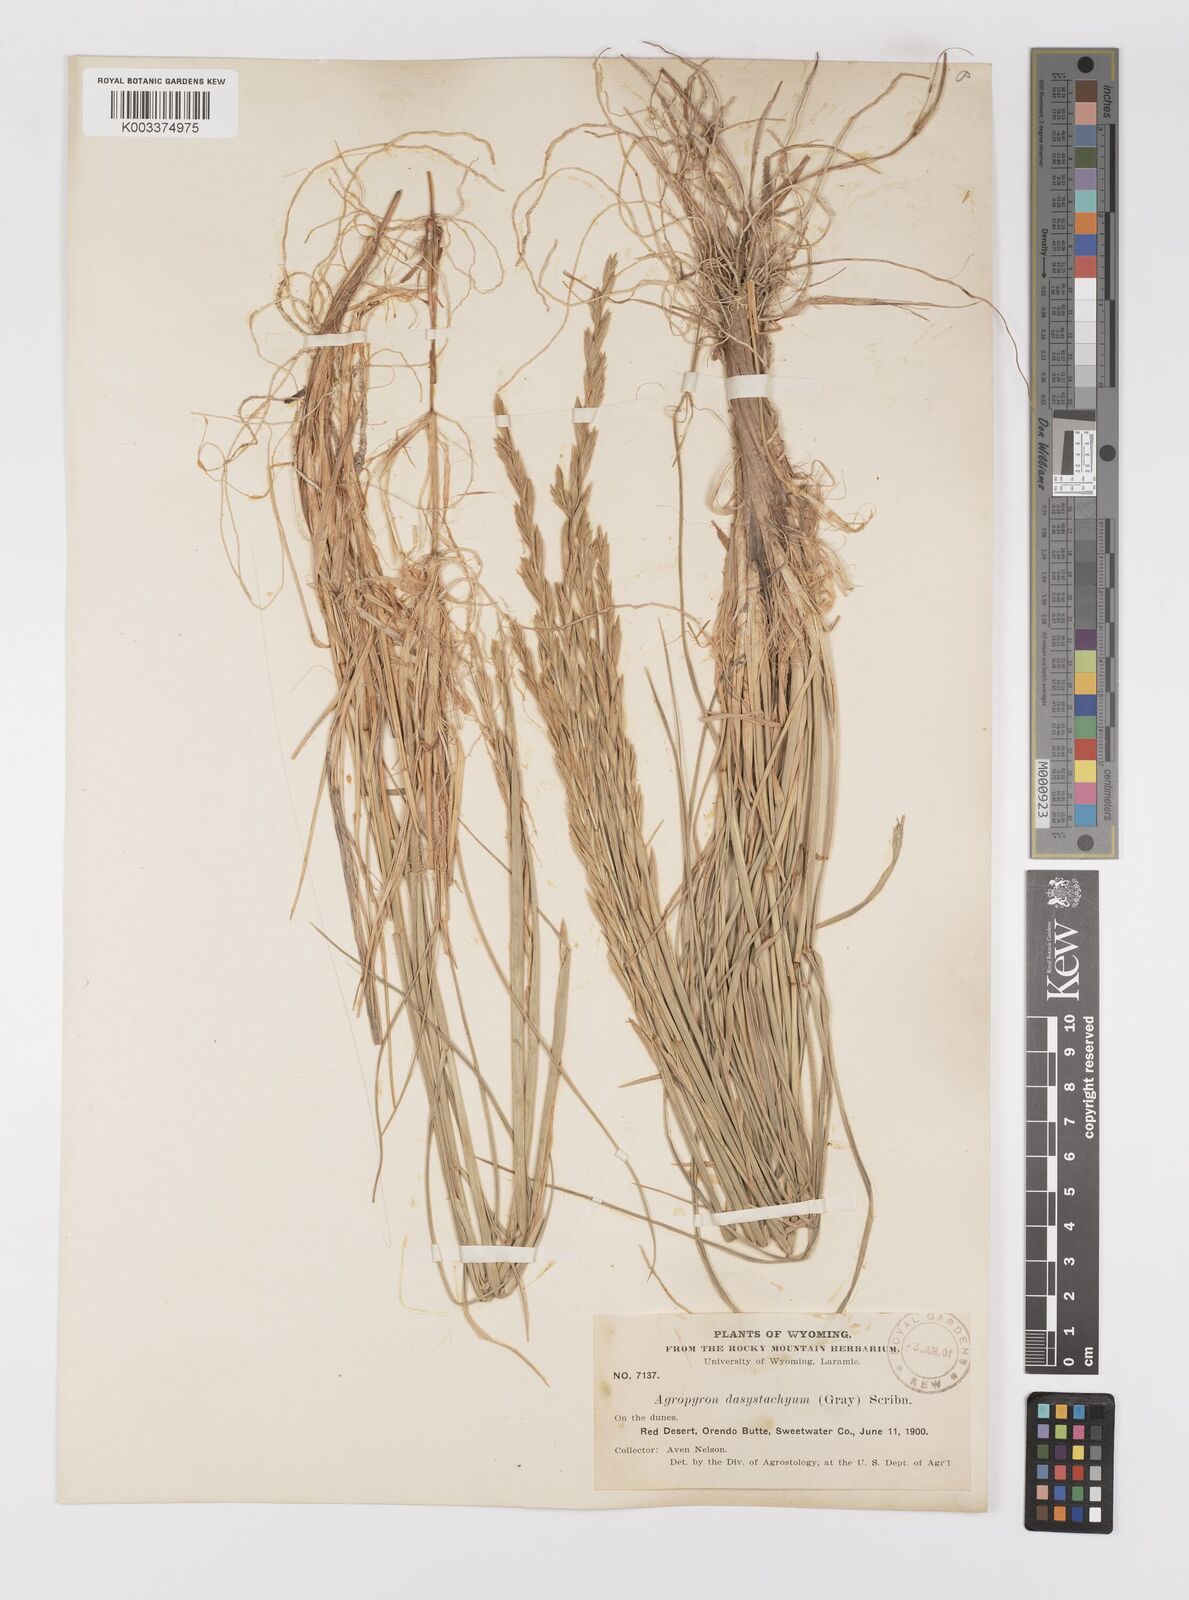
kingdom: Plantae
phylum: Tracheophyta
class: Liliopsida
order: Poales
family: Poaceae
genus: Elymus
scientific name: Elymus lanceolatus
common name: Thick-spike wheatgrass
